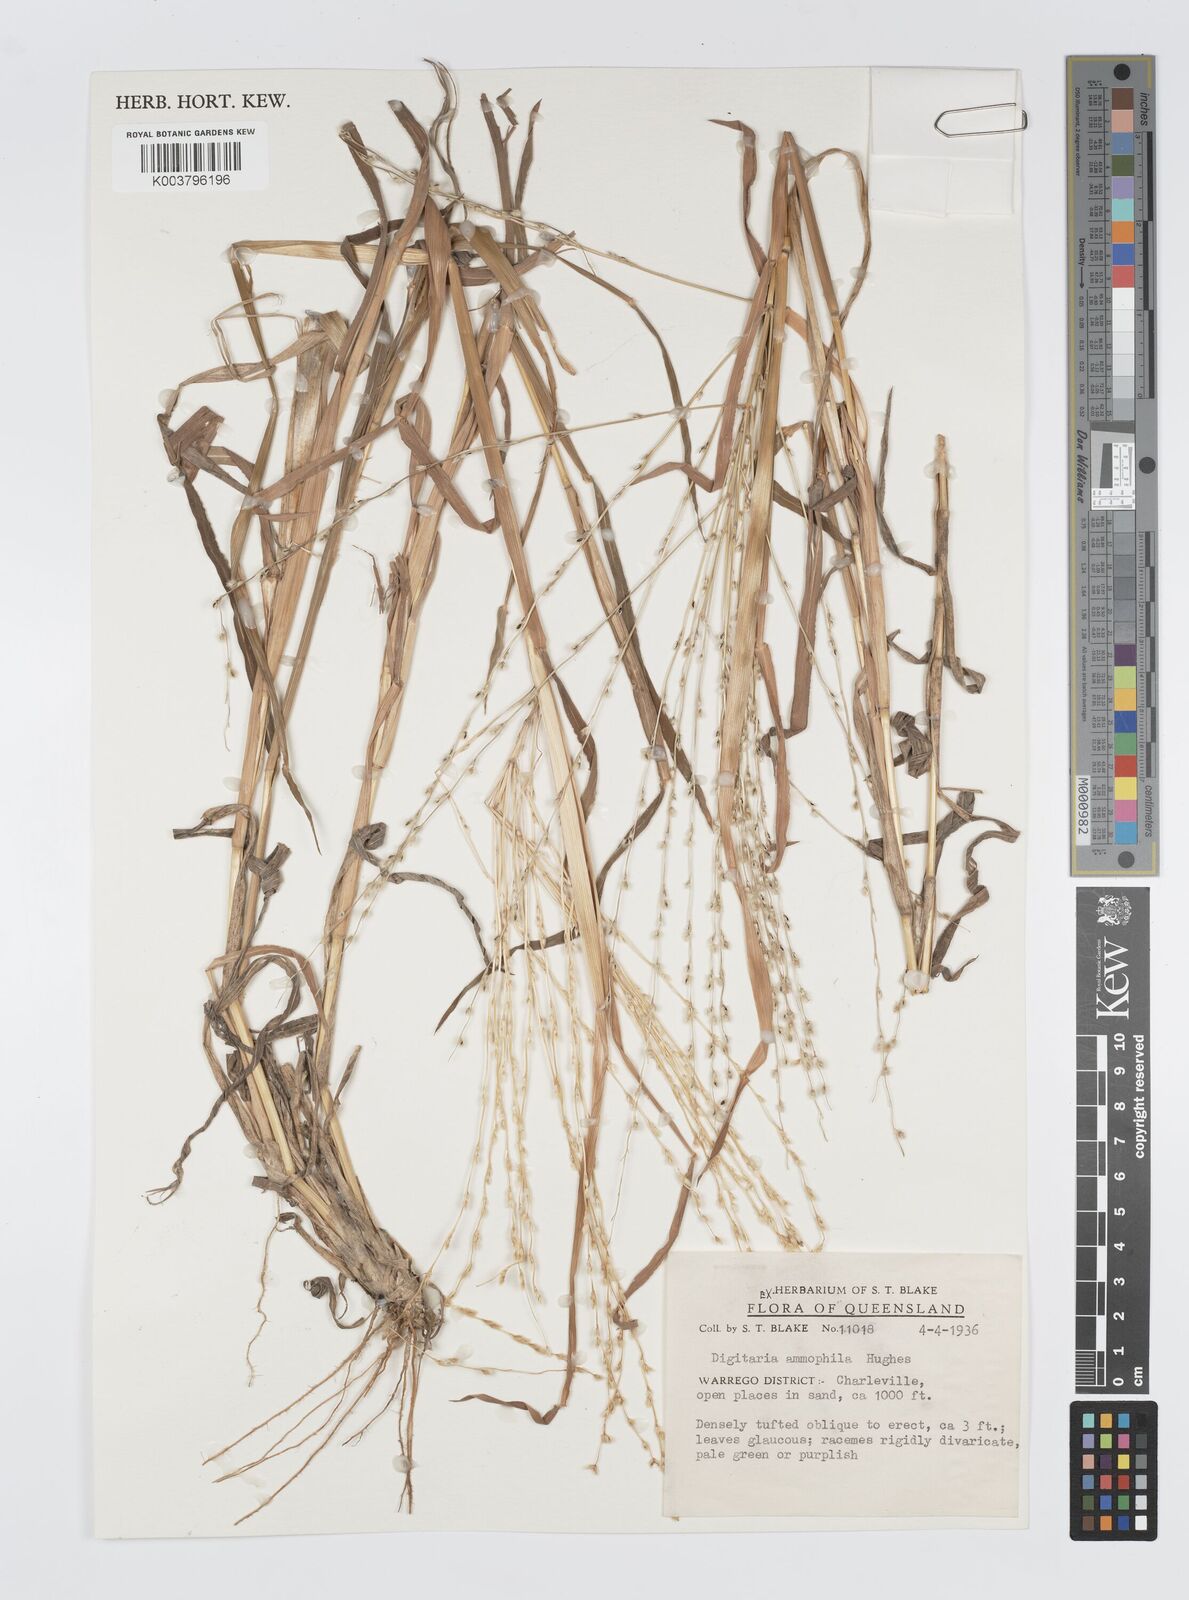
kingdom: Plantae
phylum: Tracheophyta
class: Liliopsida
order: Poales
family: Poaceae
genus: Digitaria
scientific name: Digitaria ammophila
